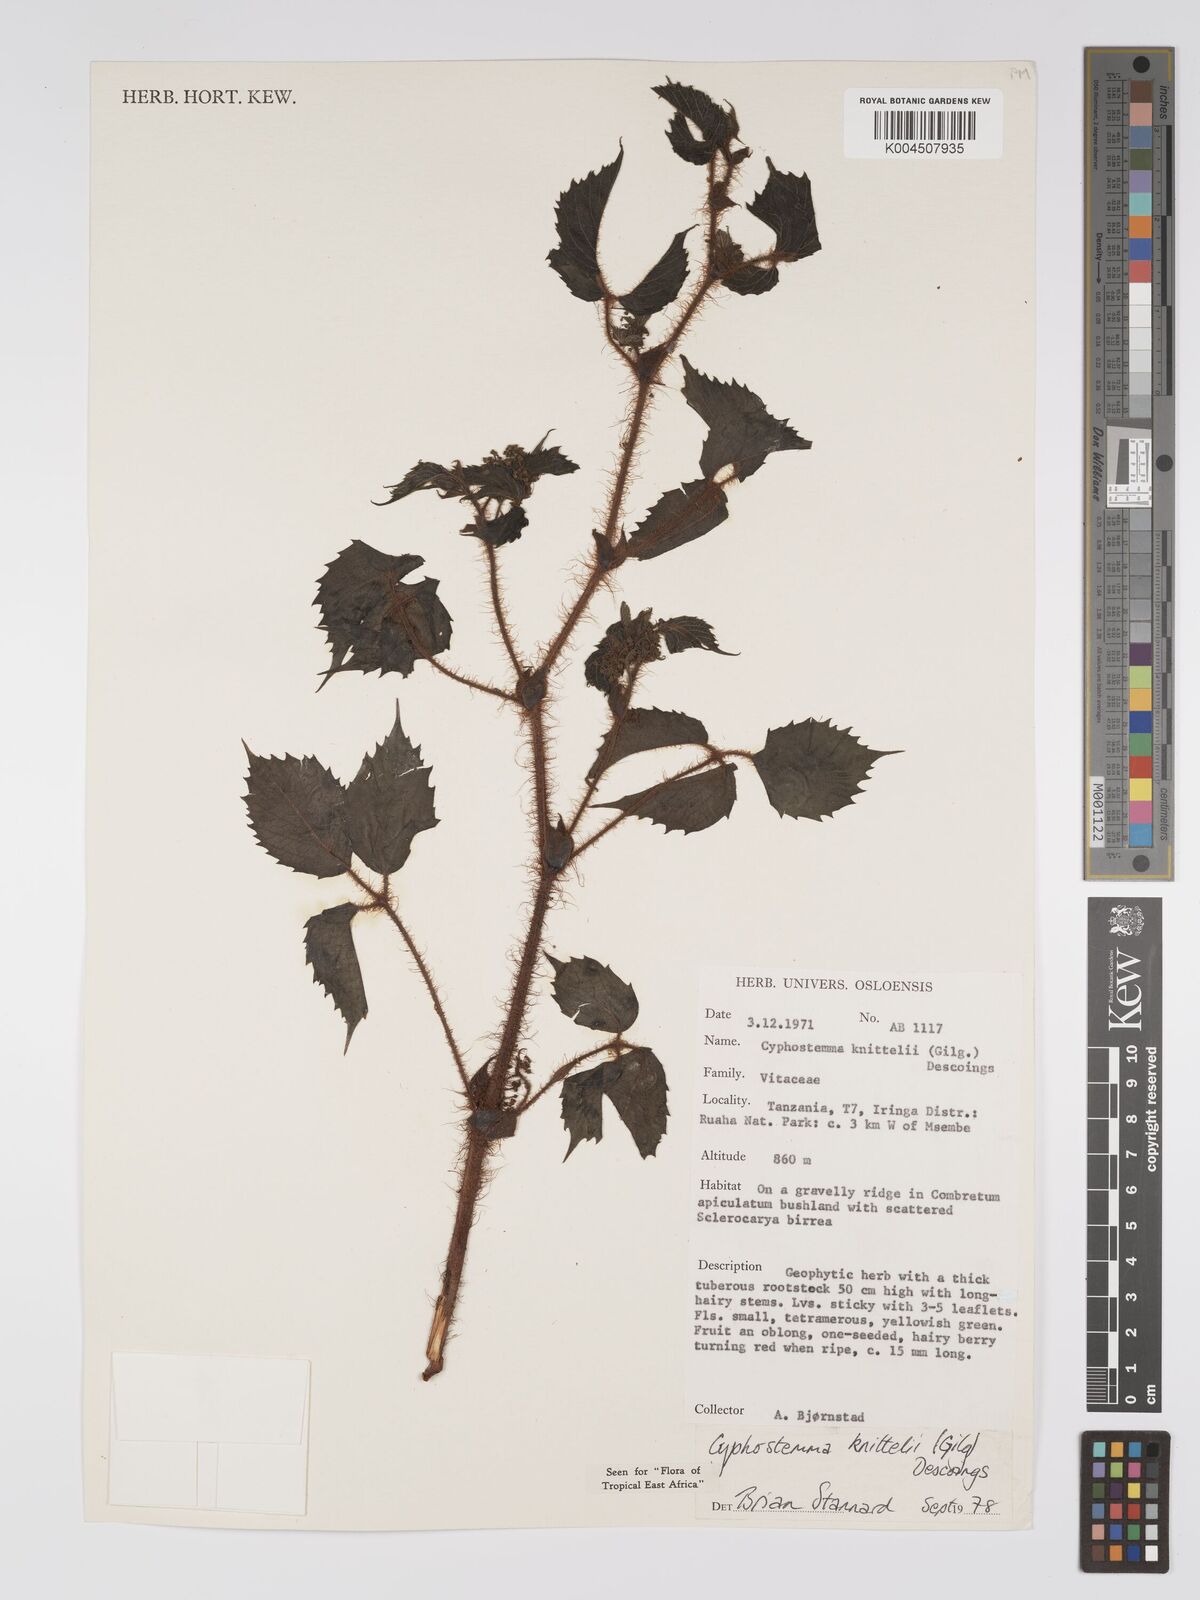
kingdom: Plantae
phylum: Tracheophyta
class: Magnoliopsida
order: Vitales
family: Vitaceae
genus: Cyphostemma
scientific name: Cyphostemma knittelii
